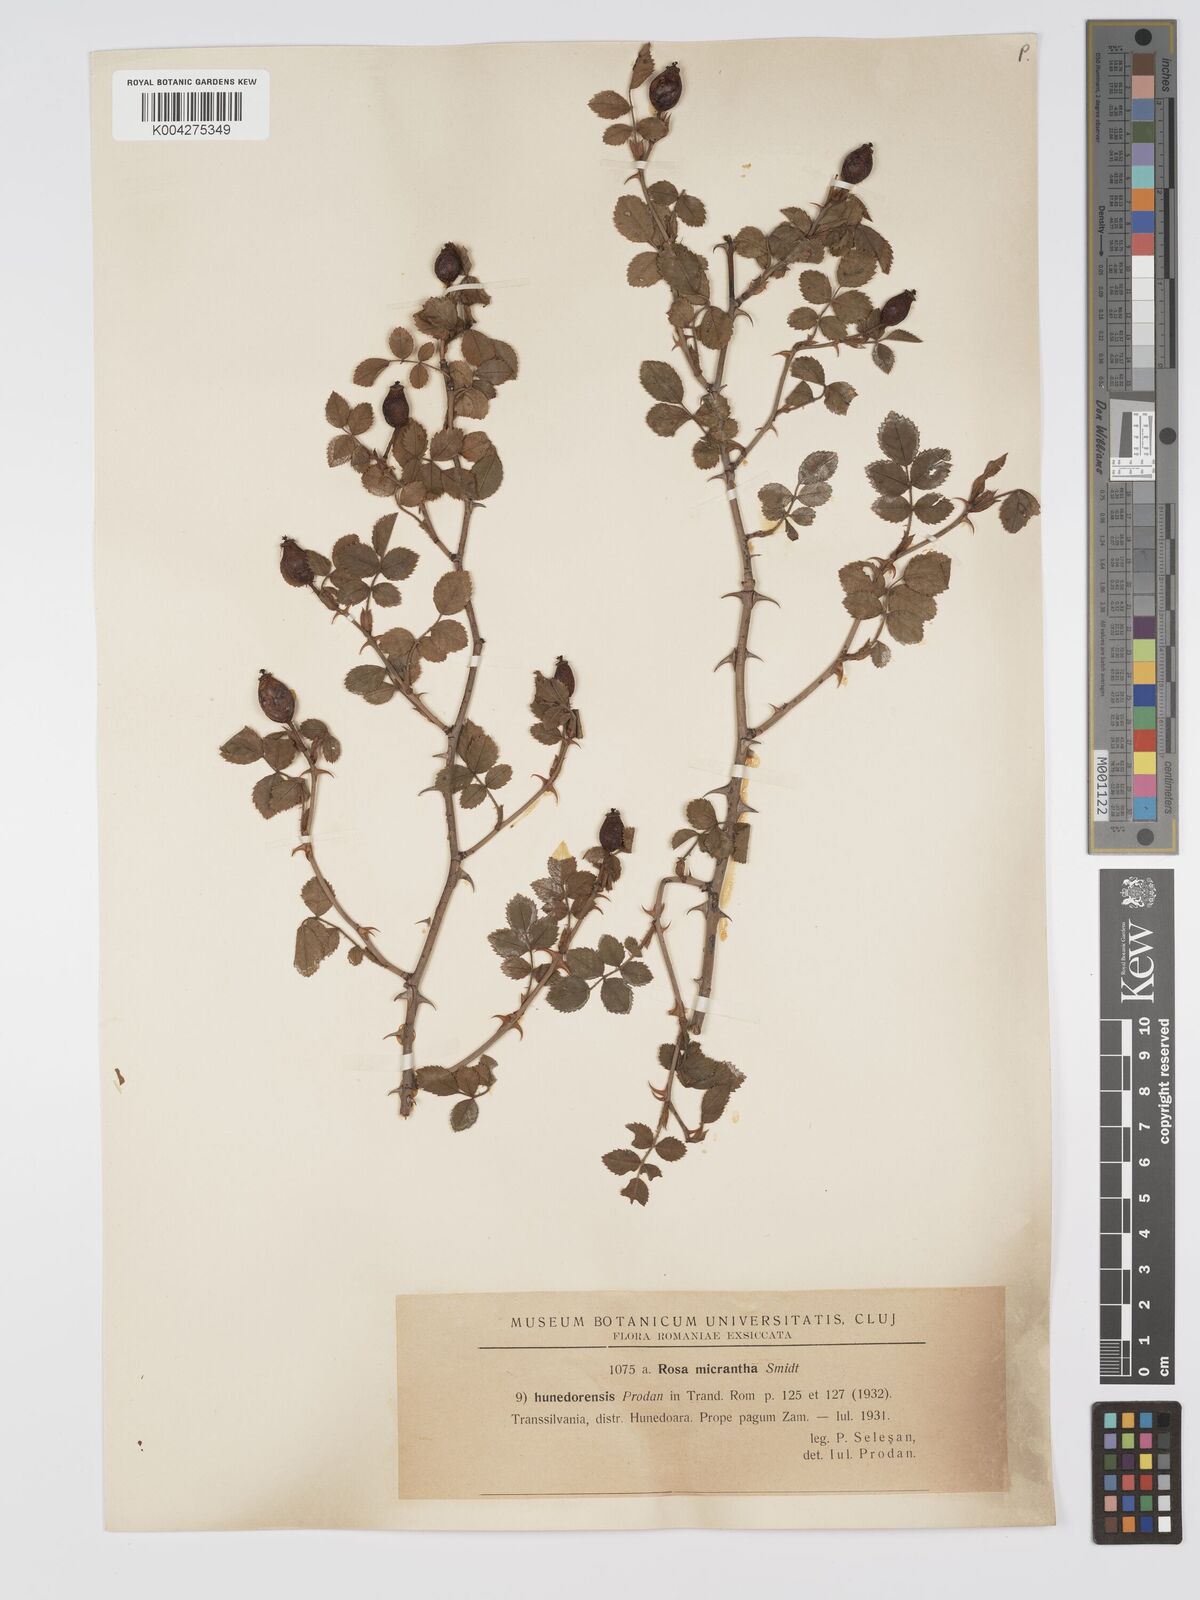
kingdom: Plantae
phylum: Tracheophyta
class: Magnoliopsida
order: Rosales
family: Rosaceae
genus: Rosa
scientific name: Rosa
